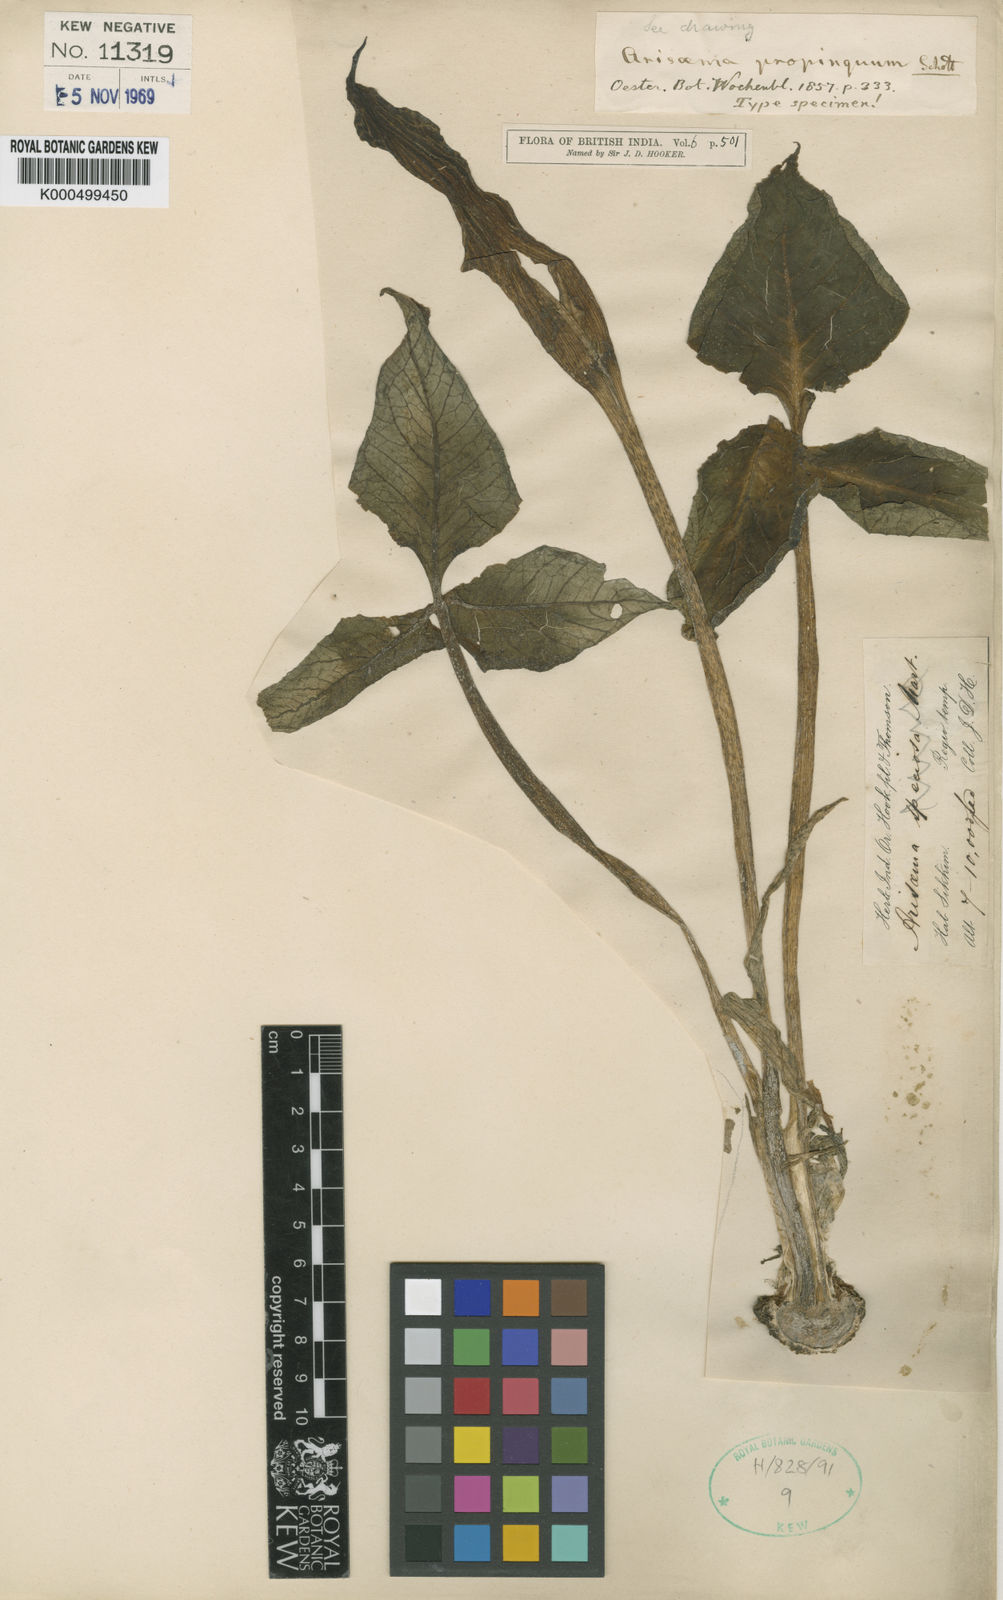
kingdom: Plantae
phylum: Tracheophyta
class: Liliopsida
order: Alismatales
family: Araceae
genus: Arisaema
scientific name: Arisaema propinquum
